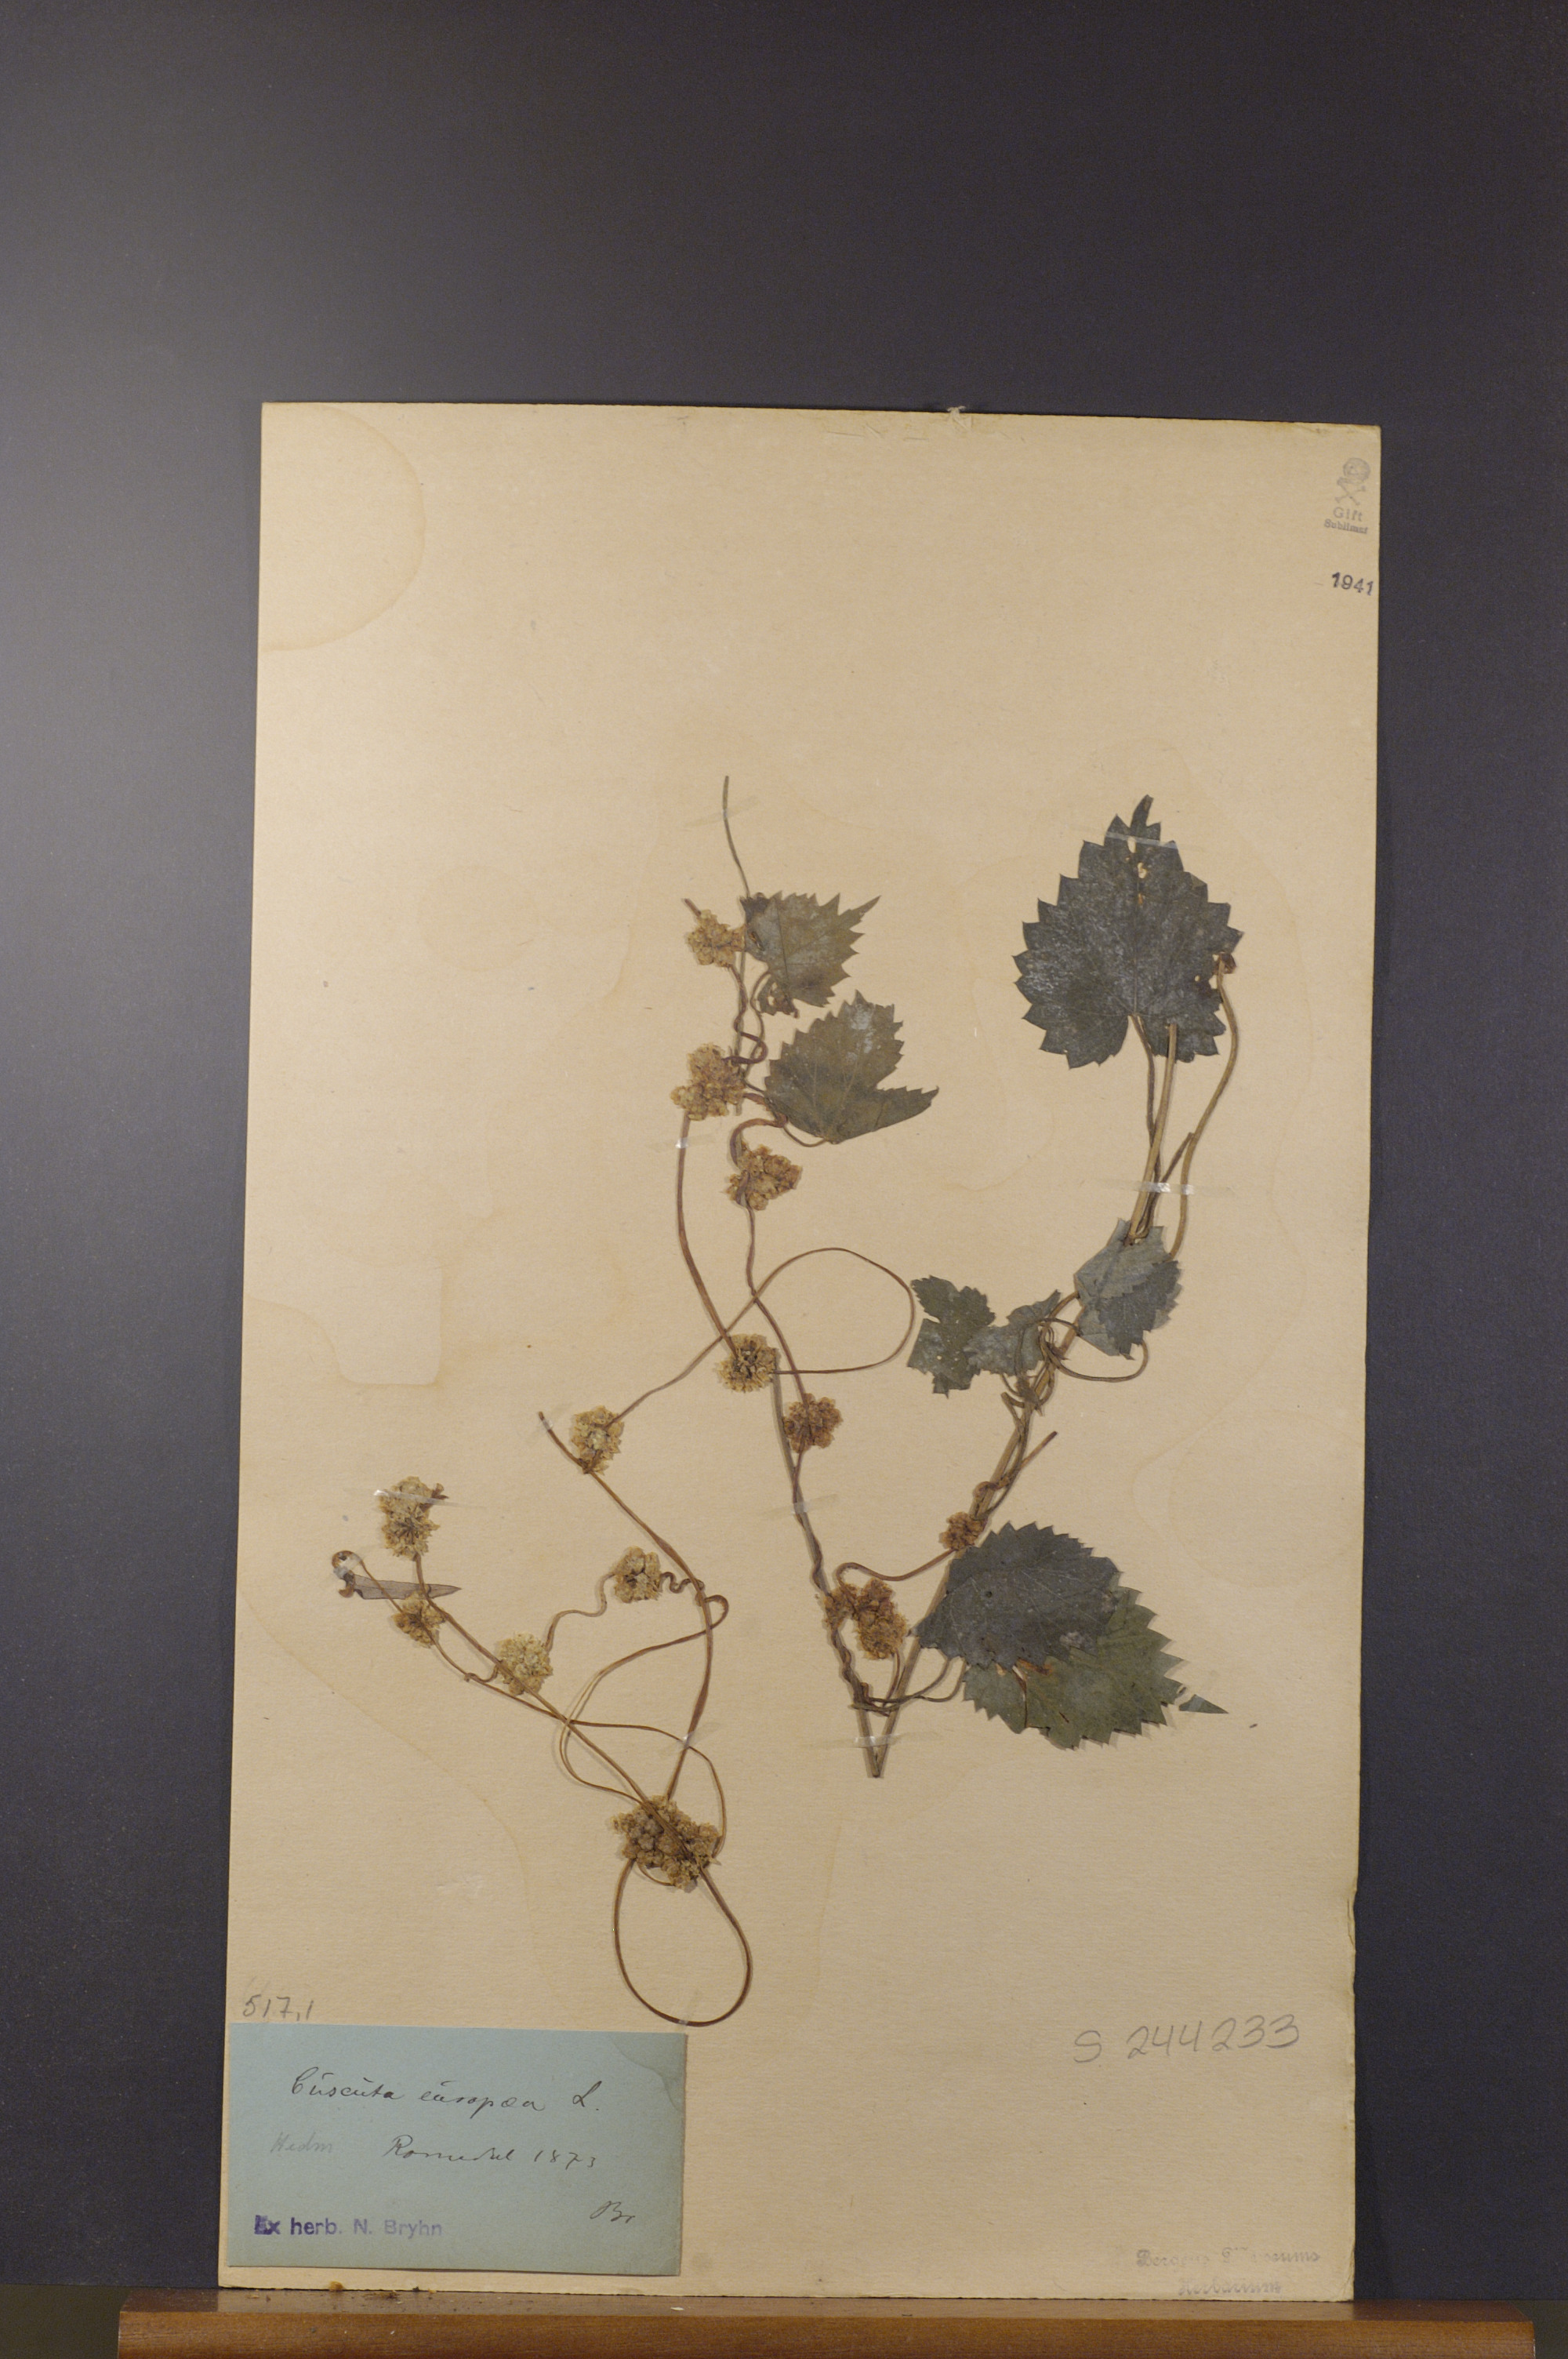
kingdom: Plantae
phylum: Tracheophyta
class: Magnoliopsida
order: Solanales
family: Convolvulaceae
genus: Cuscuta
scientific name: Cuscuta europaea
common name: Greater dodder
